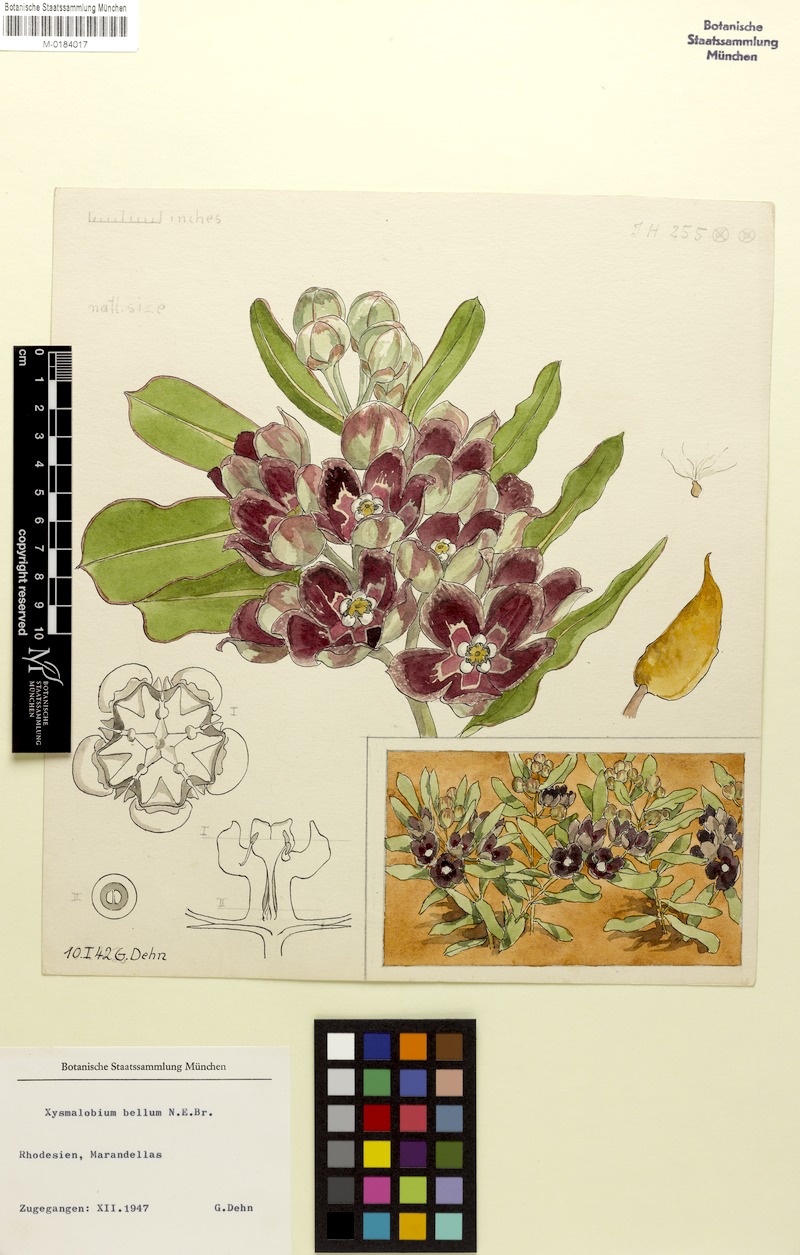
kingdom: Plantae
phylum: Tracheophyta
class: Magnoliopsida
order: Gentianales
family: Apocynaceae
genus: Glossostelma
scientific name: Glossostelma spathulatum
